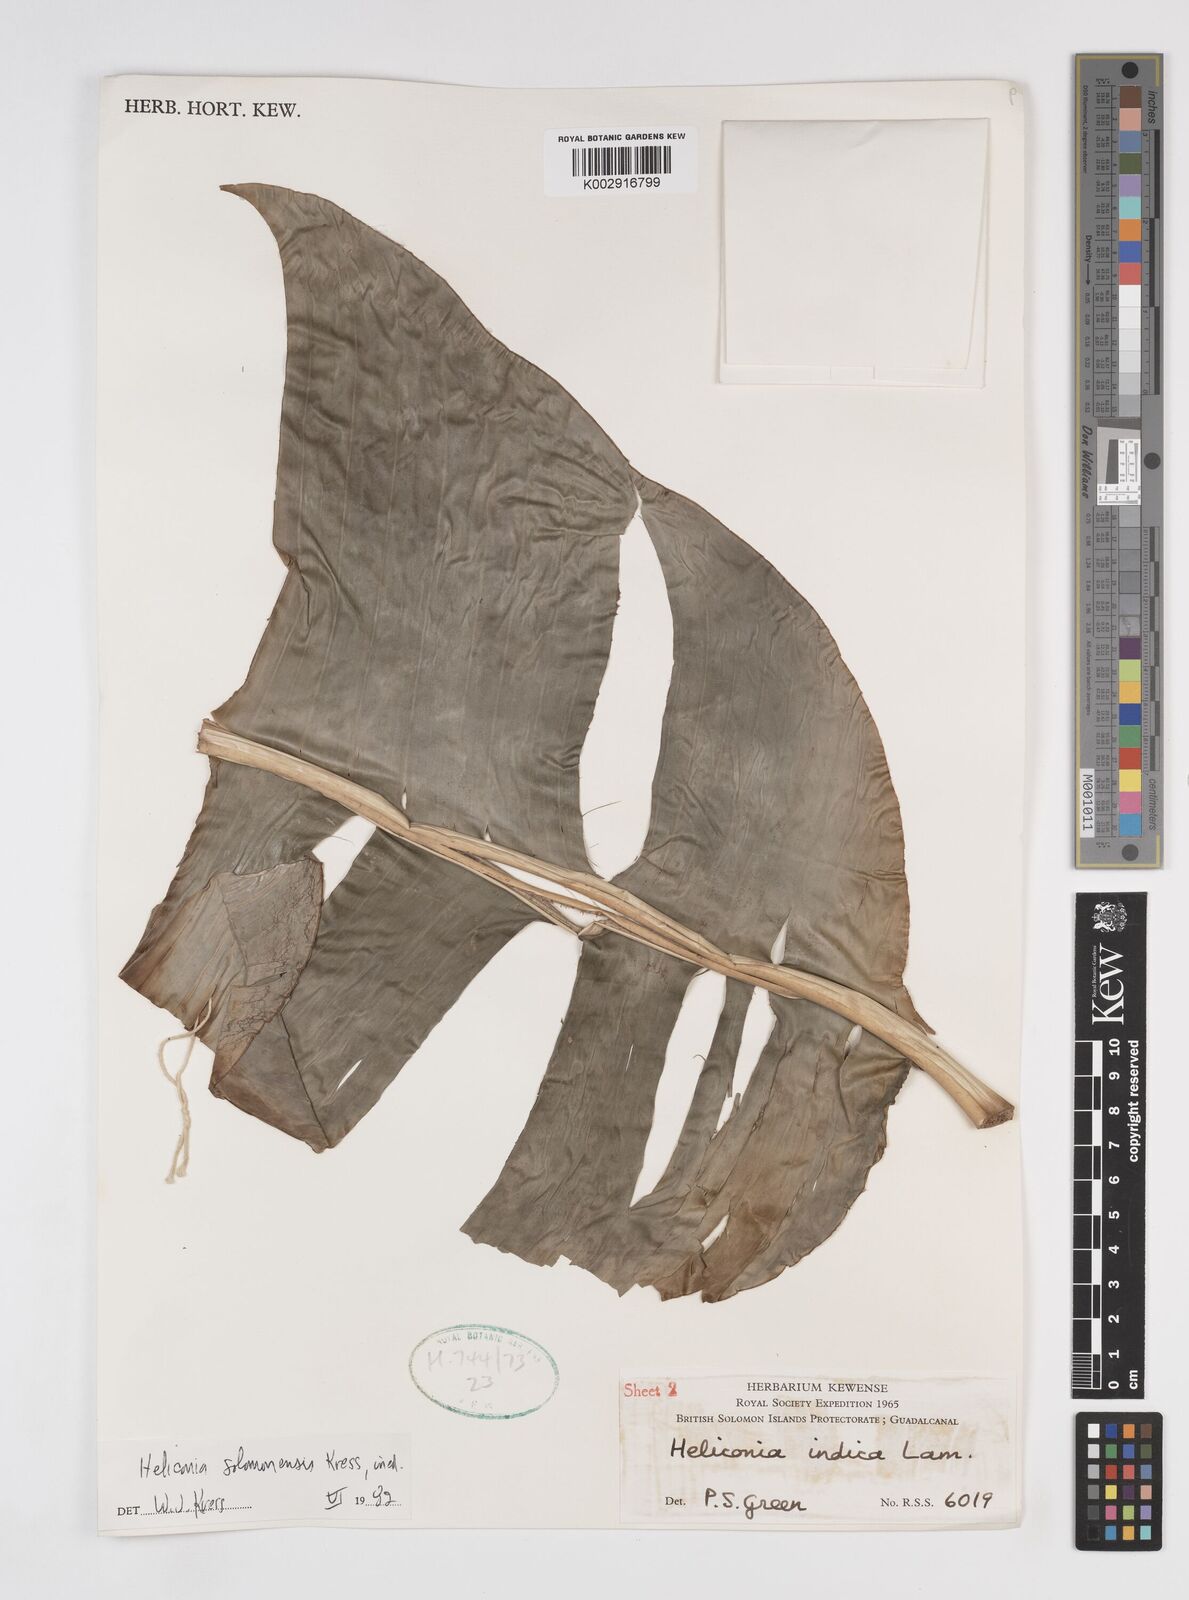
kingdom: Plantae
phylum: Tracheophyta
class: Liliopsida
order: Zingiberales
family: Heliconiaceae
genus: Heliconia
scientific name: Heliconia solomonensis
